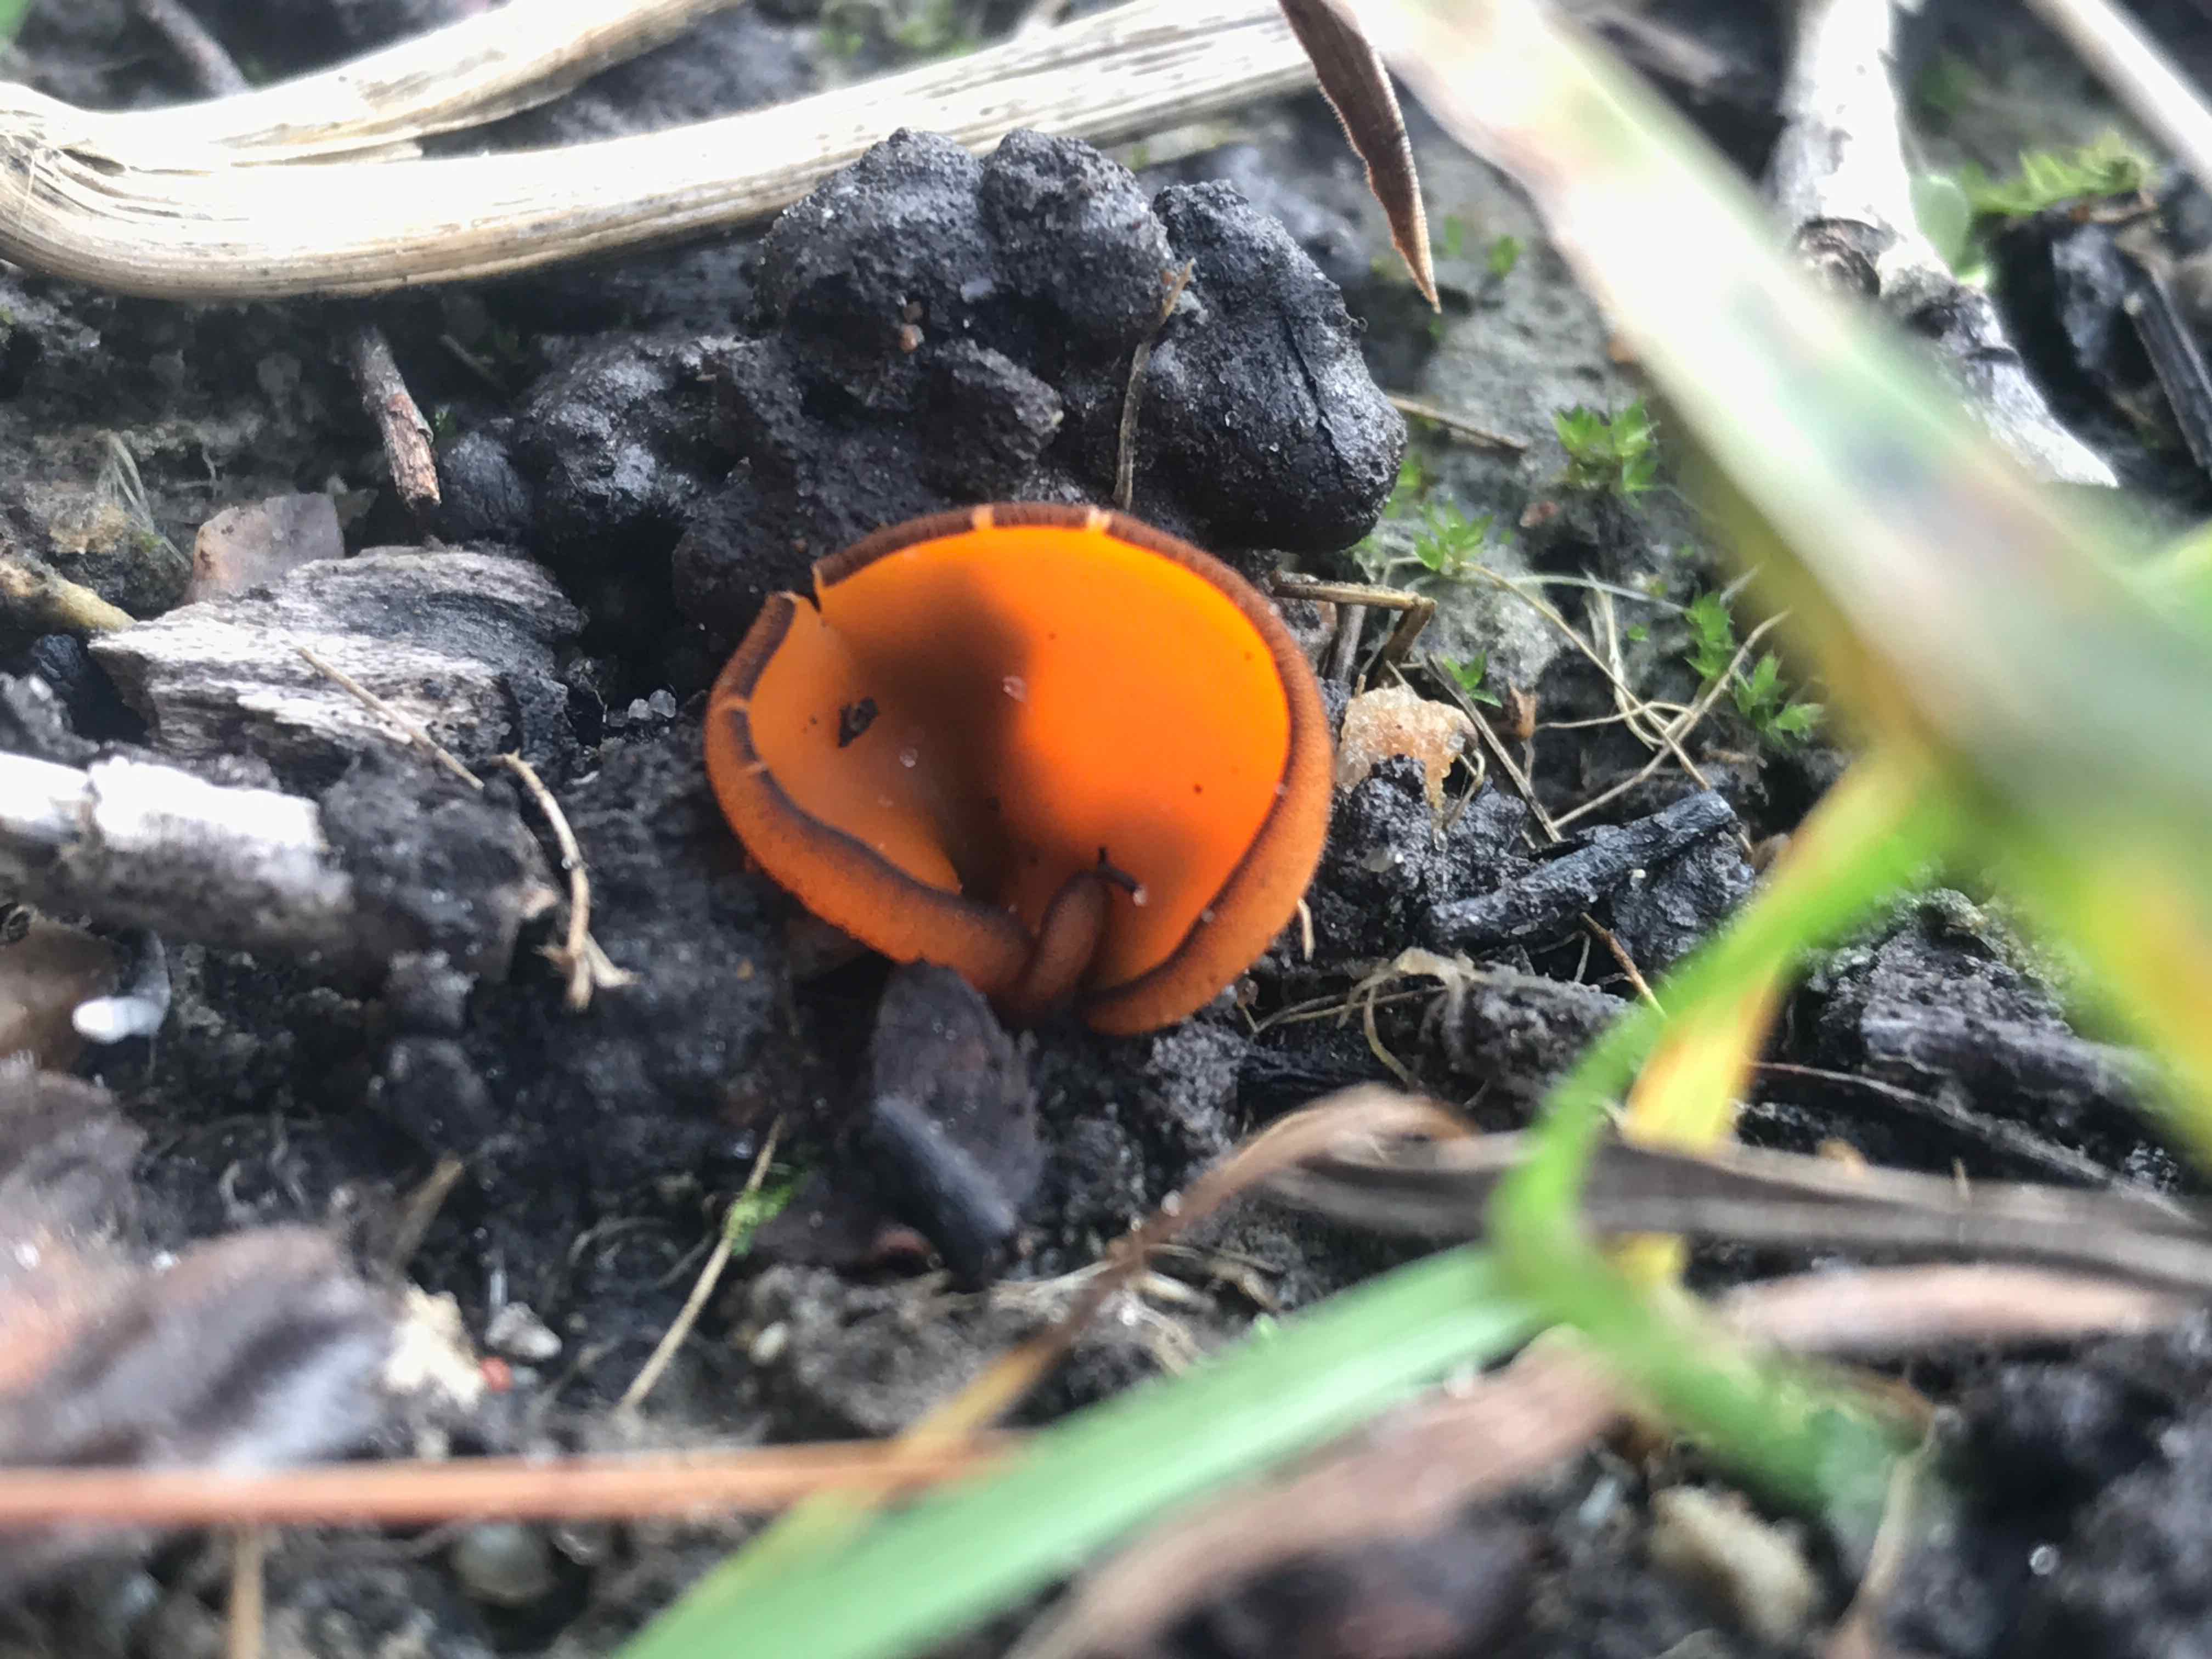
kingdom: Fungi
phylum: Ascomycota
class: Pezizomycetes
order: Pezizales
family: Pyronemataceae
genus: Melastiza
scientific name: Melastiza cornubiensis
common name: mørkrandet rødbæger
